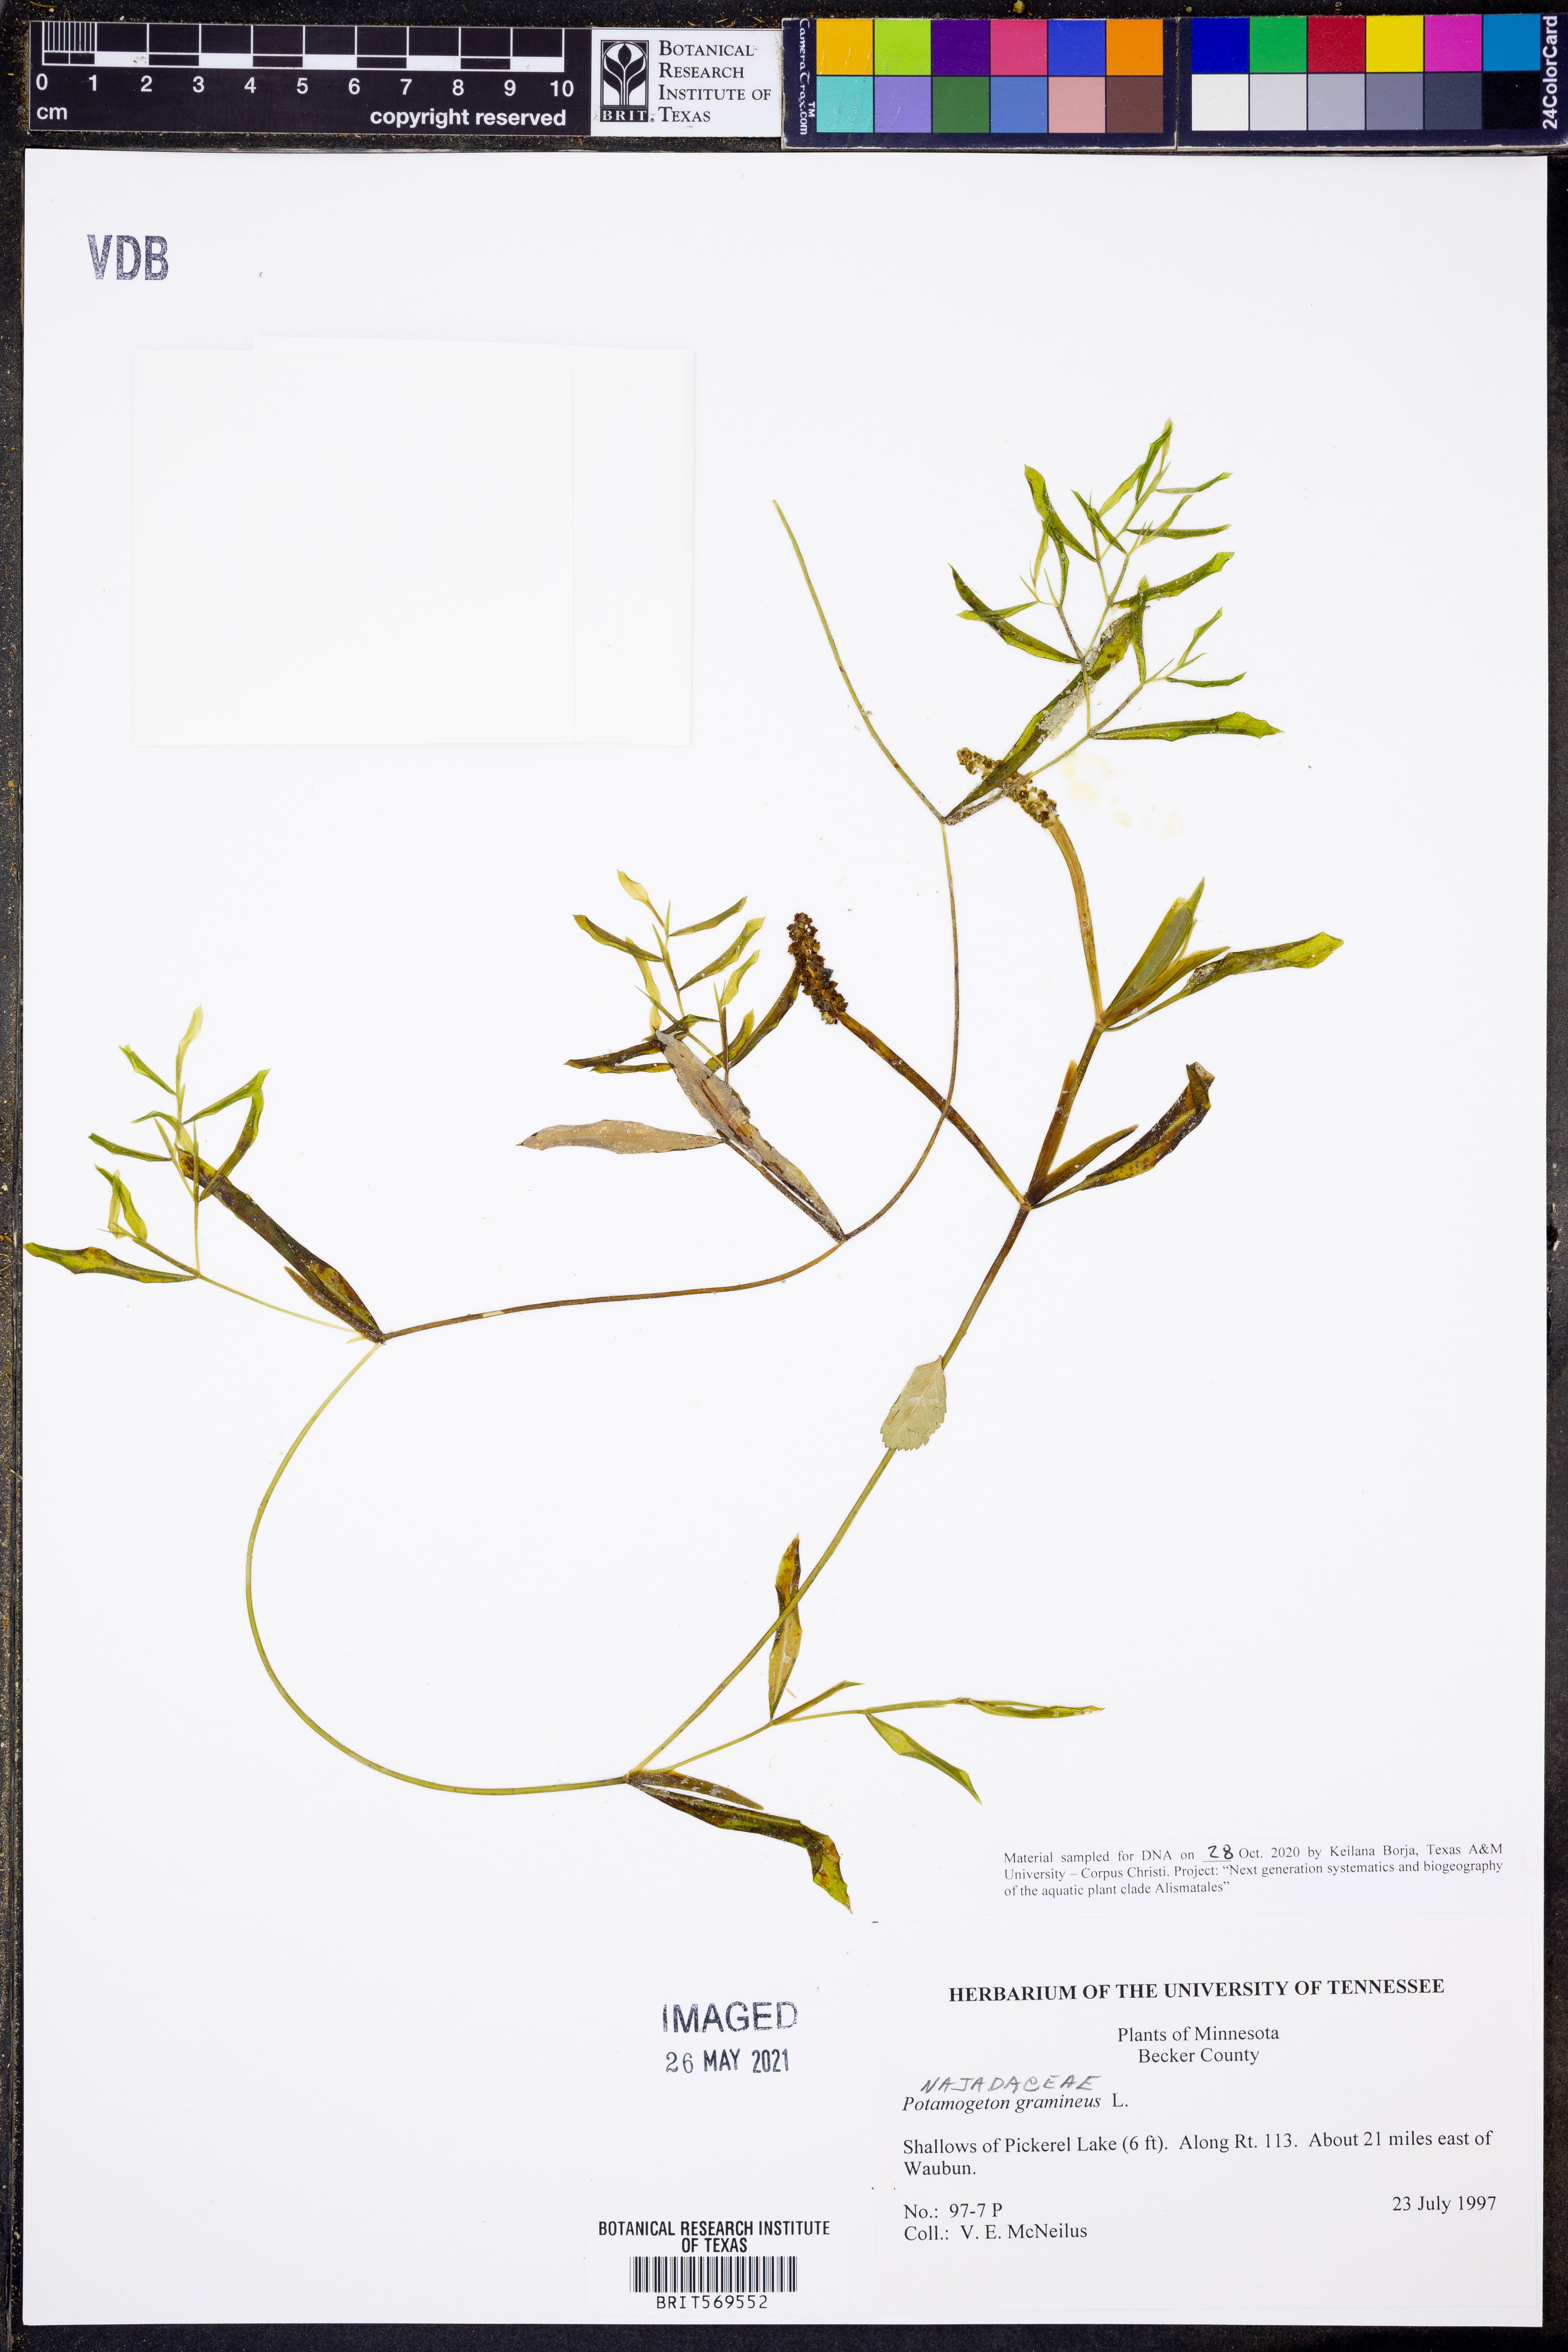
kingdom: Plantae
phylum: Tracheophyta
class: Liliopsida
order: Alismatales
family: Potamogetonaceae
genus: Potamogeton
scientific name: Potamogeton gramineus
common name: Various-leaved pondweed
